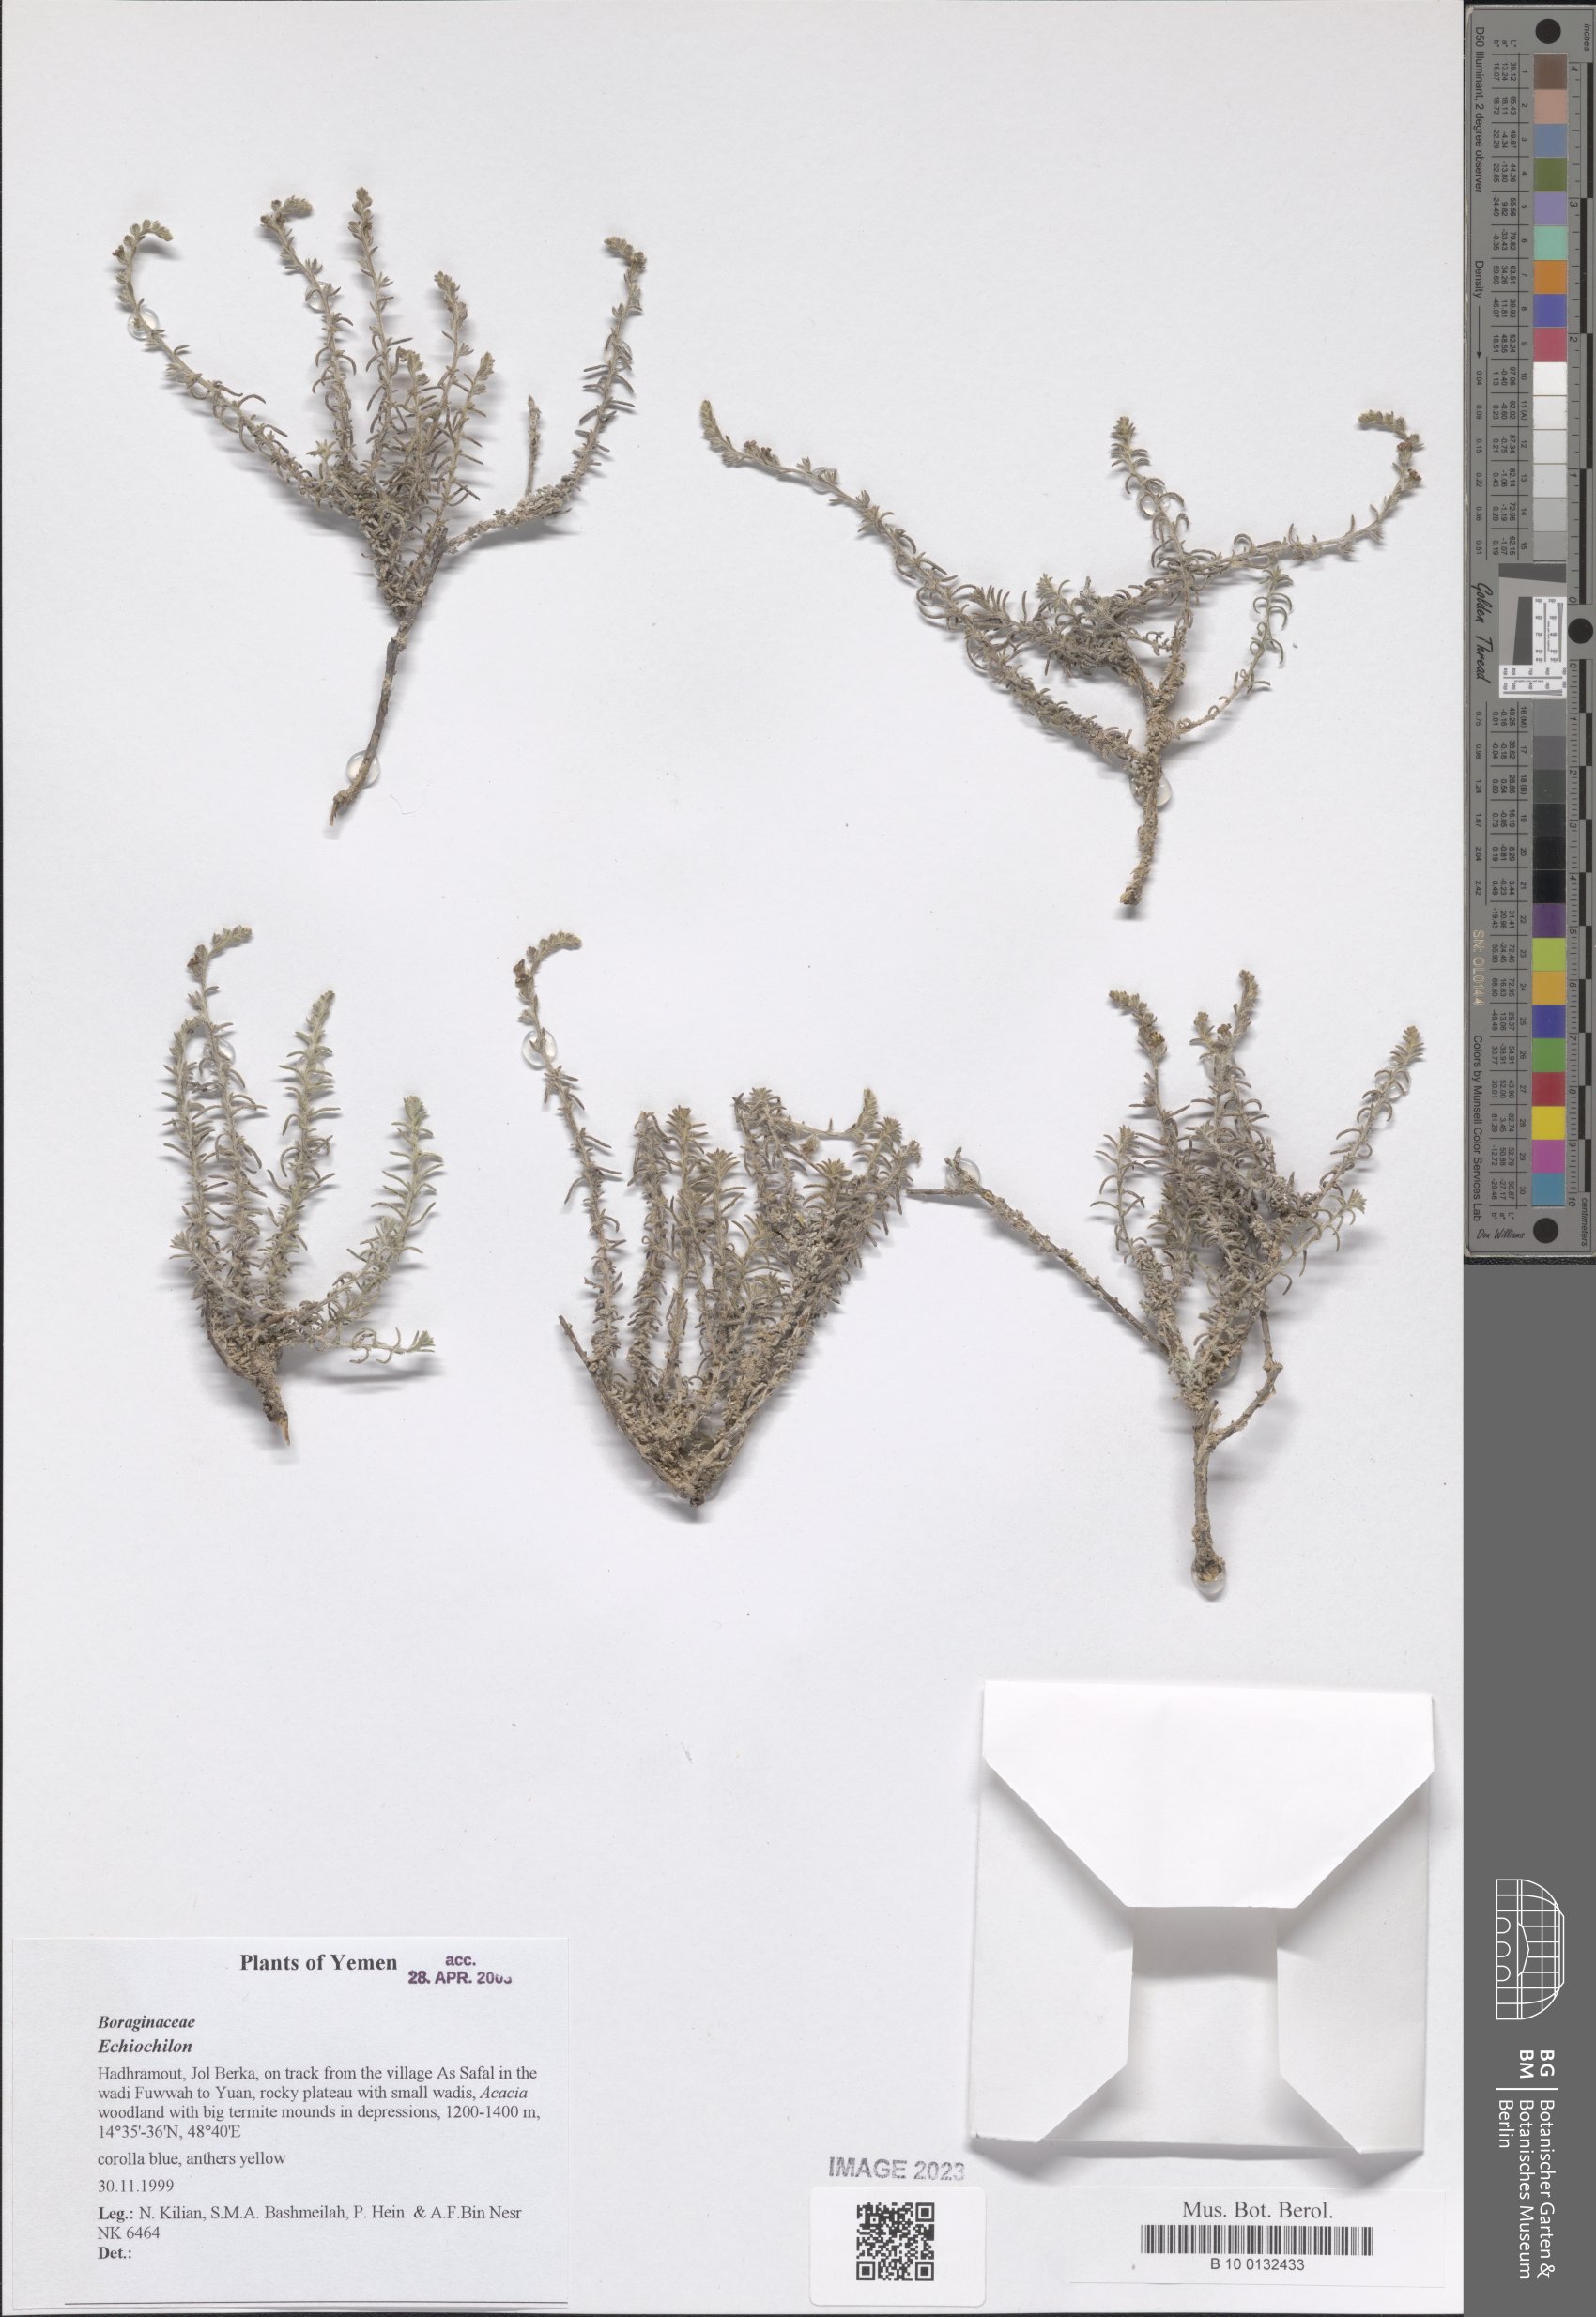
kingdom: Plantae
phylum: Tracheophyta
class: Magnoliopsida
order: Boraginales
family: Boraginaceae
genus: Echiochilon
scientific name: Echiochilon
